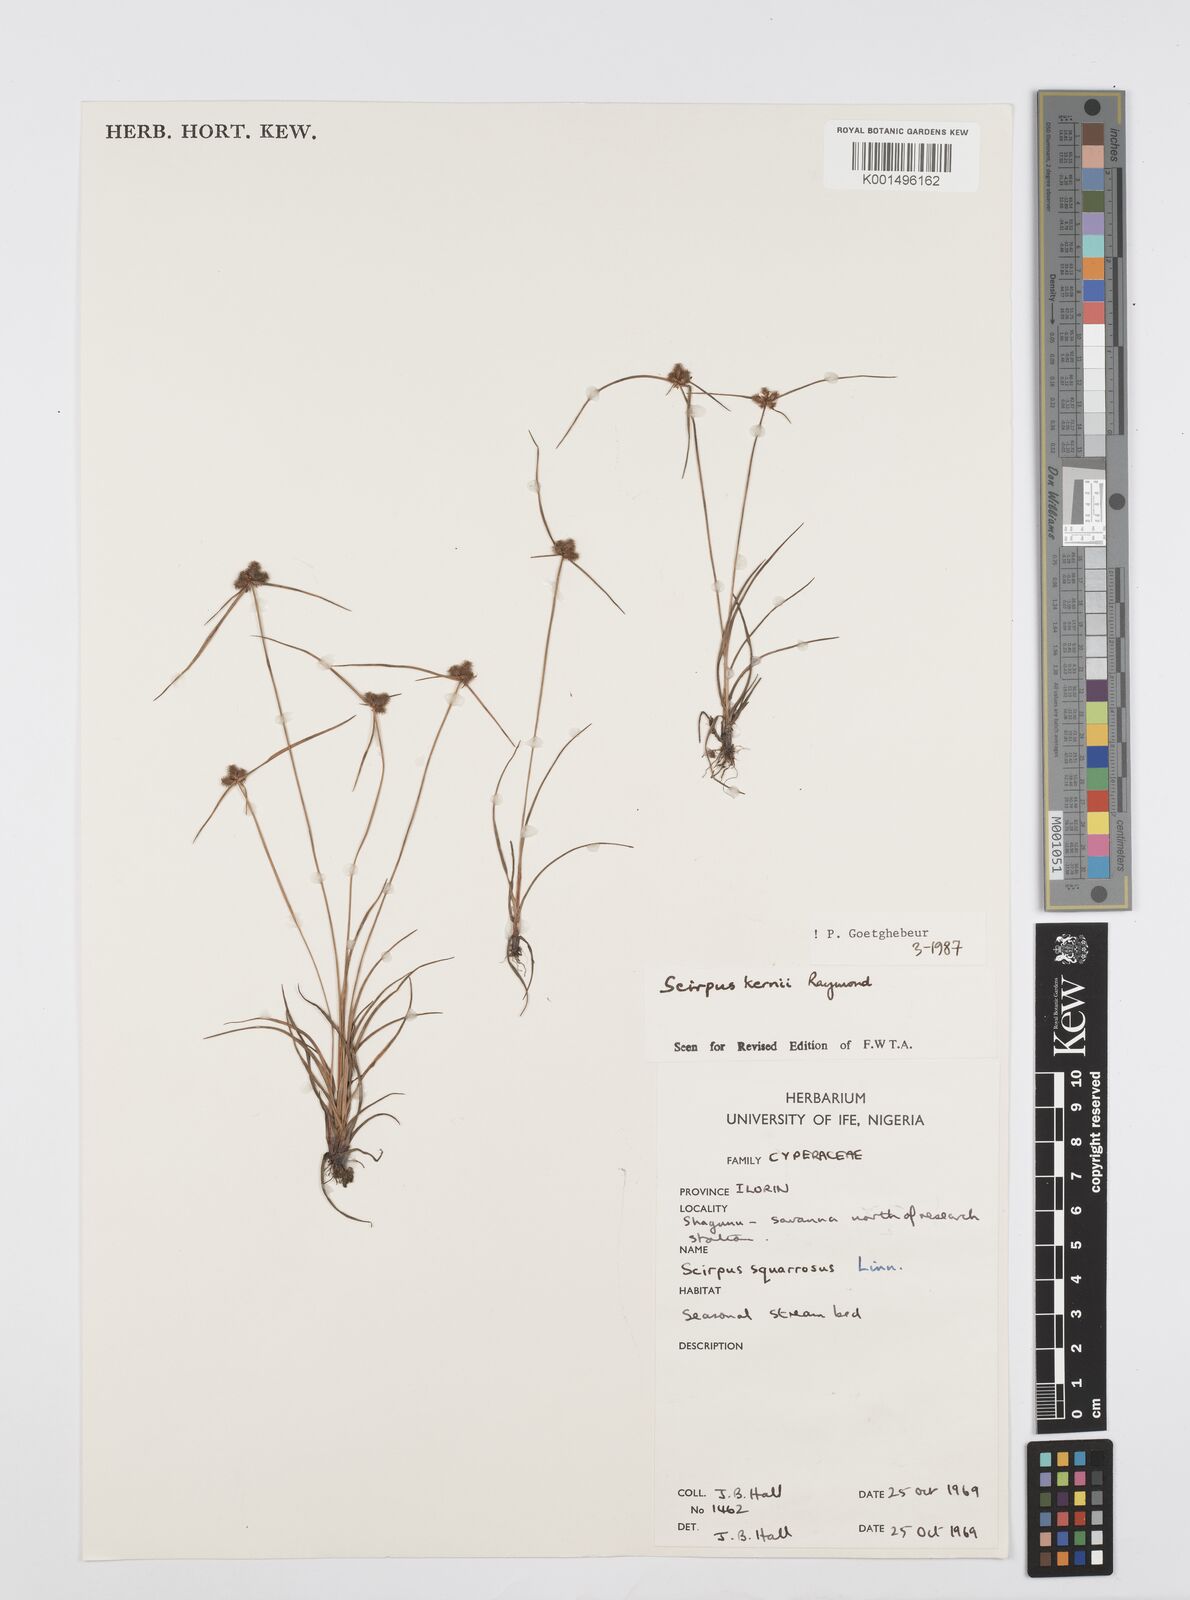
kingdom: Plantae
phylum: Tracheophyta
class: Liliopsida
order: Poales
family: Cyperaceae
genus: Cyperus
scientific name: Cyperus kernii
